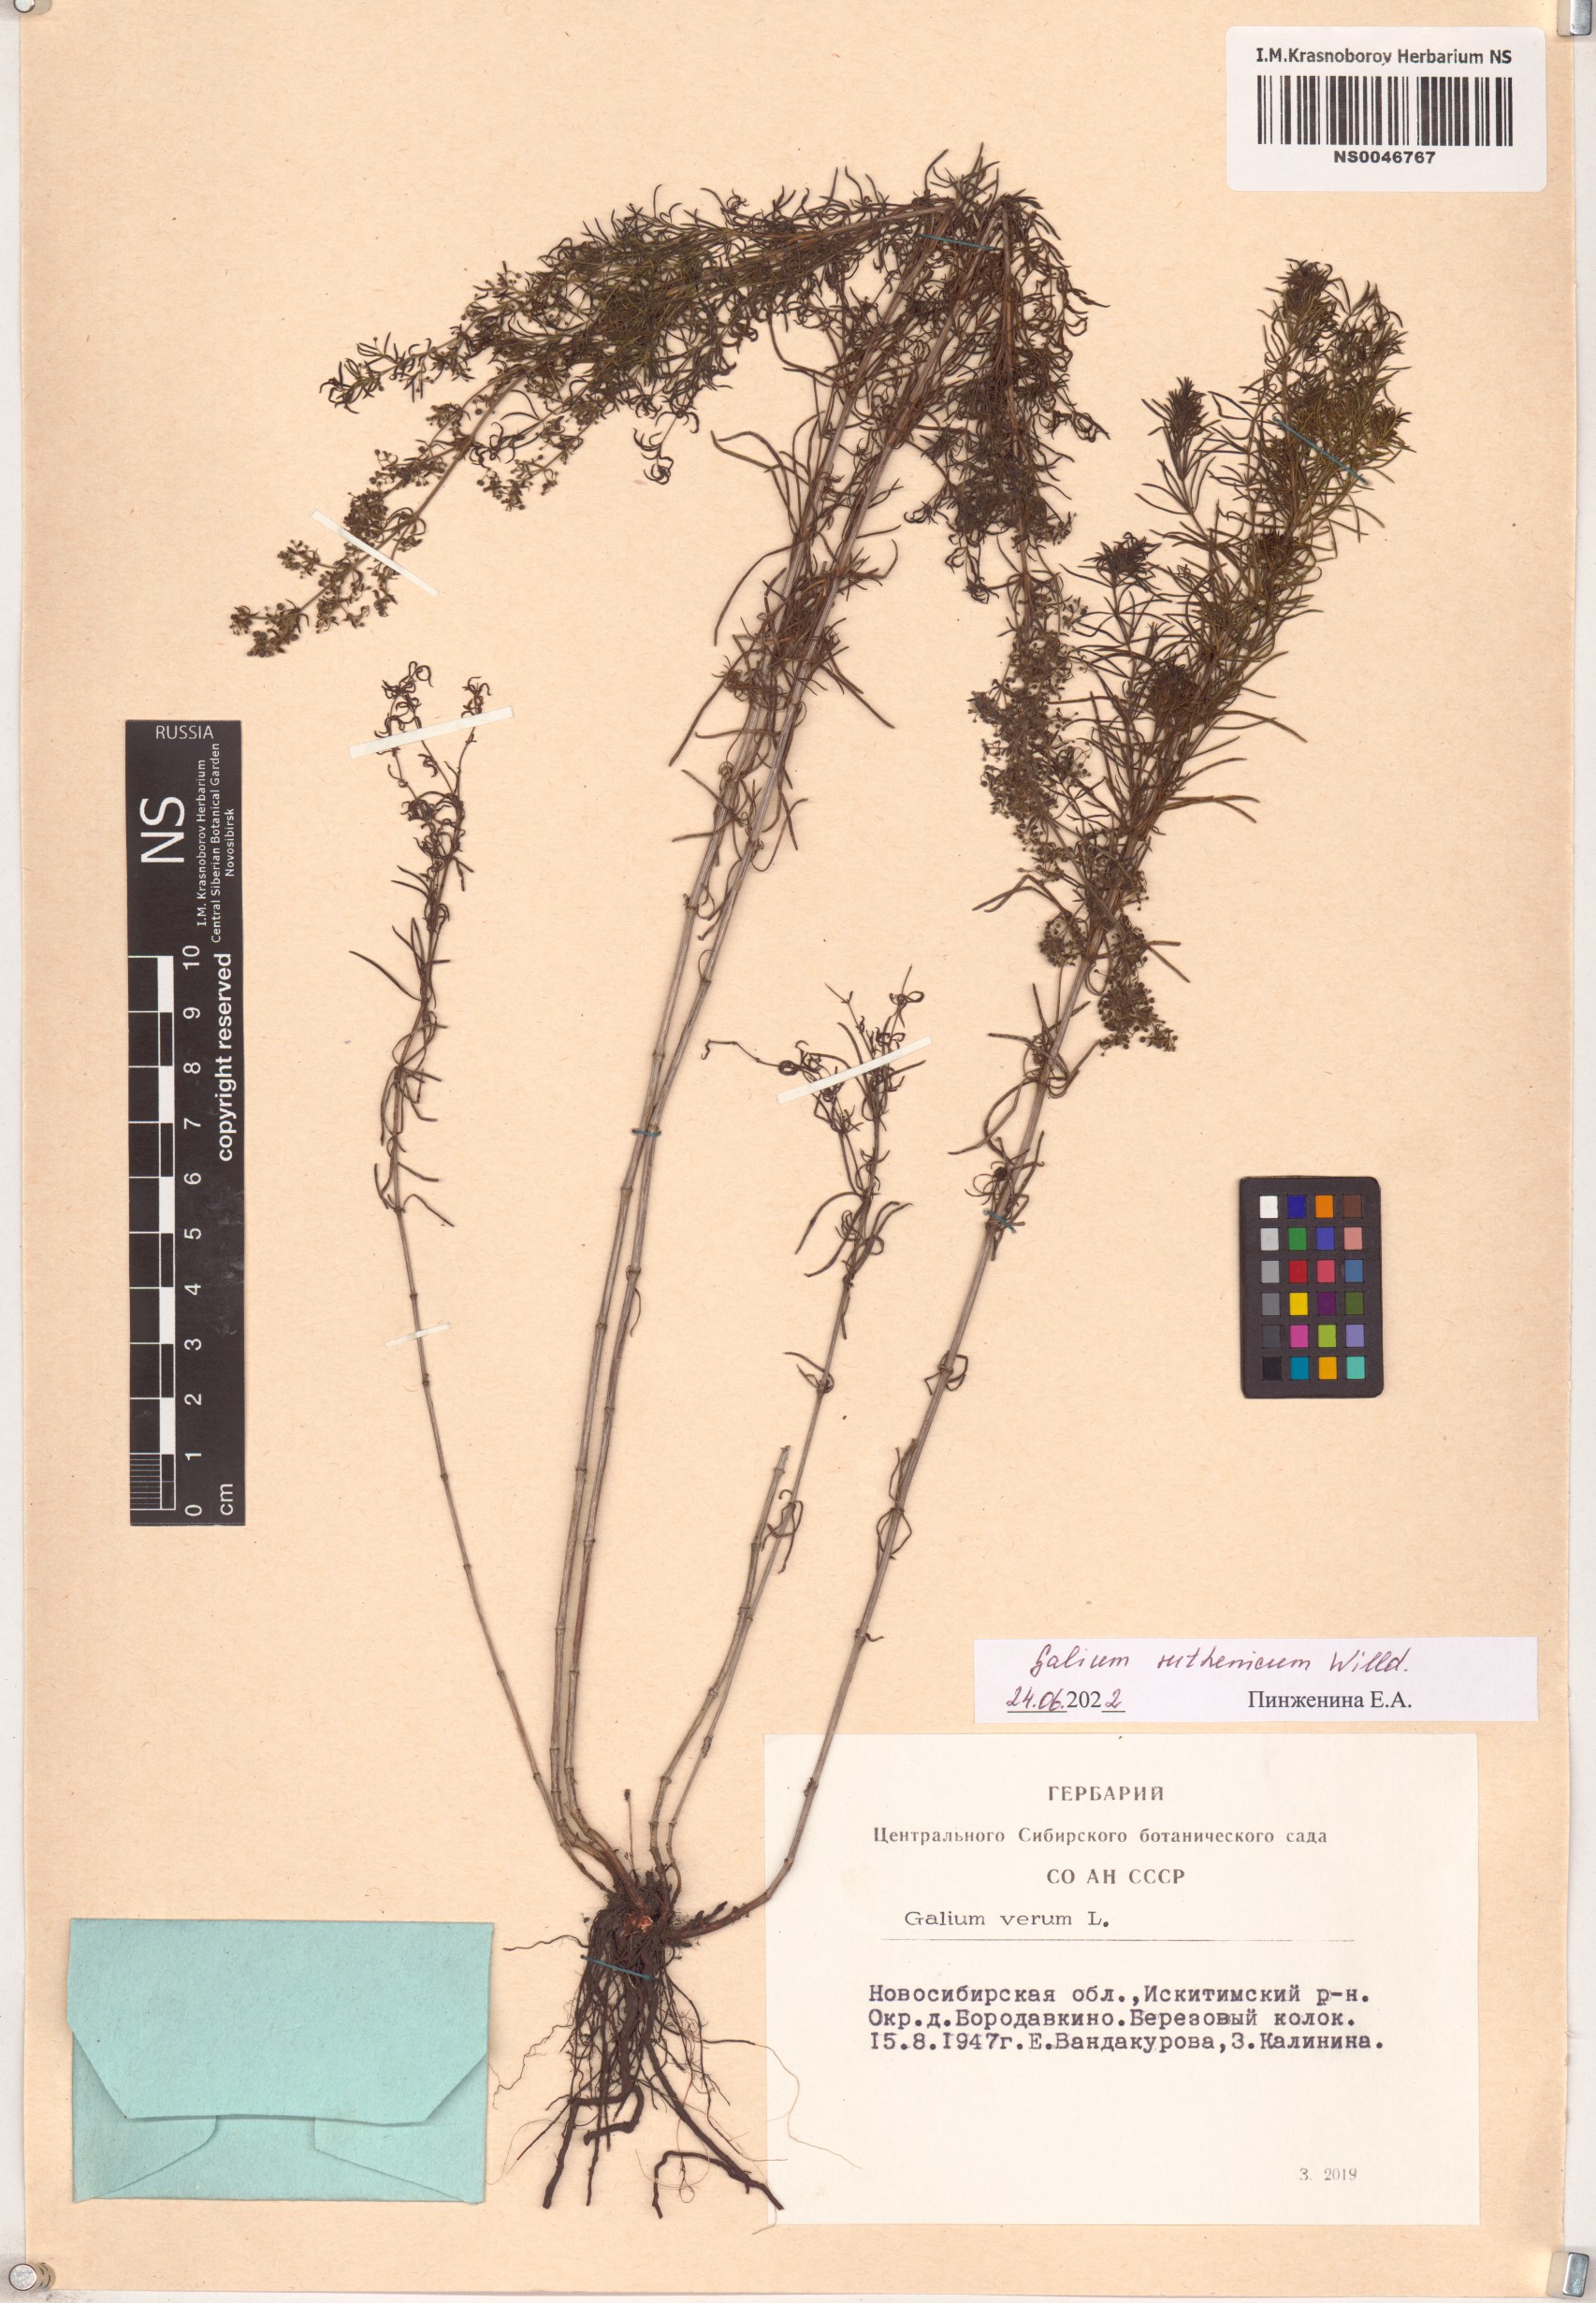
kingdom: Plantae
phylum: Tracheophyta
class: Magnoliopsida
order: Gentianales
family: Rubiaceae
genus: Galium
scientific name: Galium verum
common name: Lady's bedstraw
